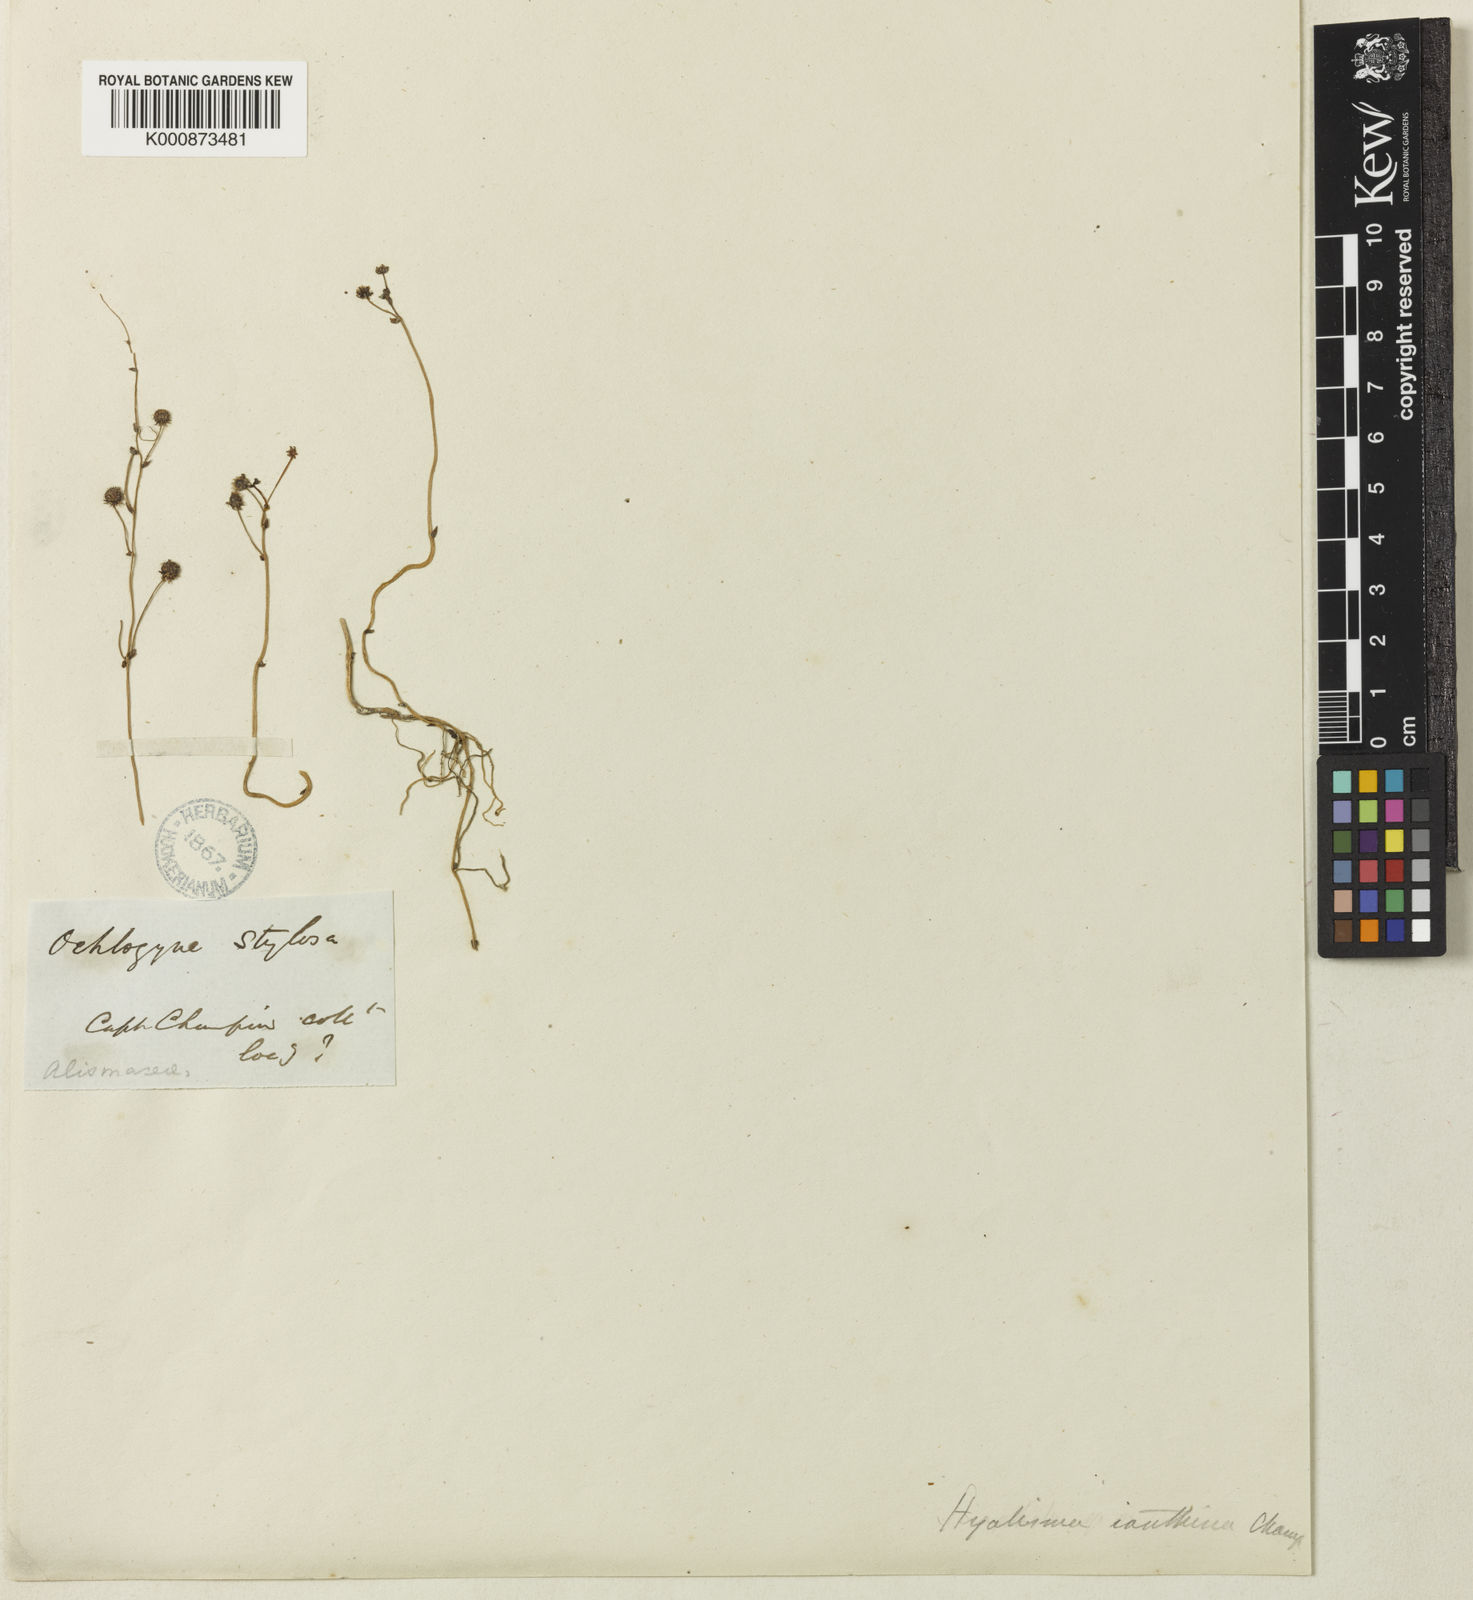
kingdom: Plantae
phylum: Tracheophyta
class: Liliopsida
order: Pandanales
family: Triuridaceae
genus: Sciaphila
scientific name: Sciaphila janthina
